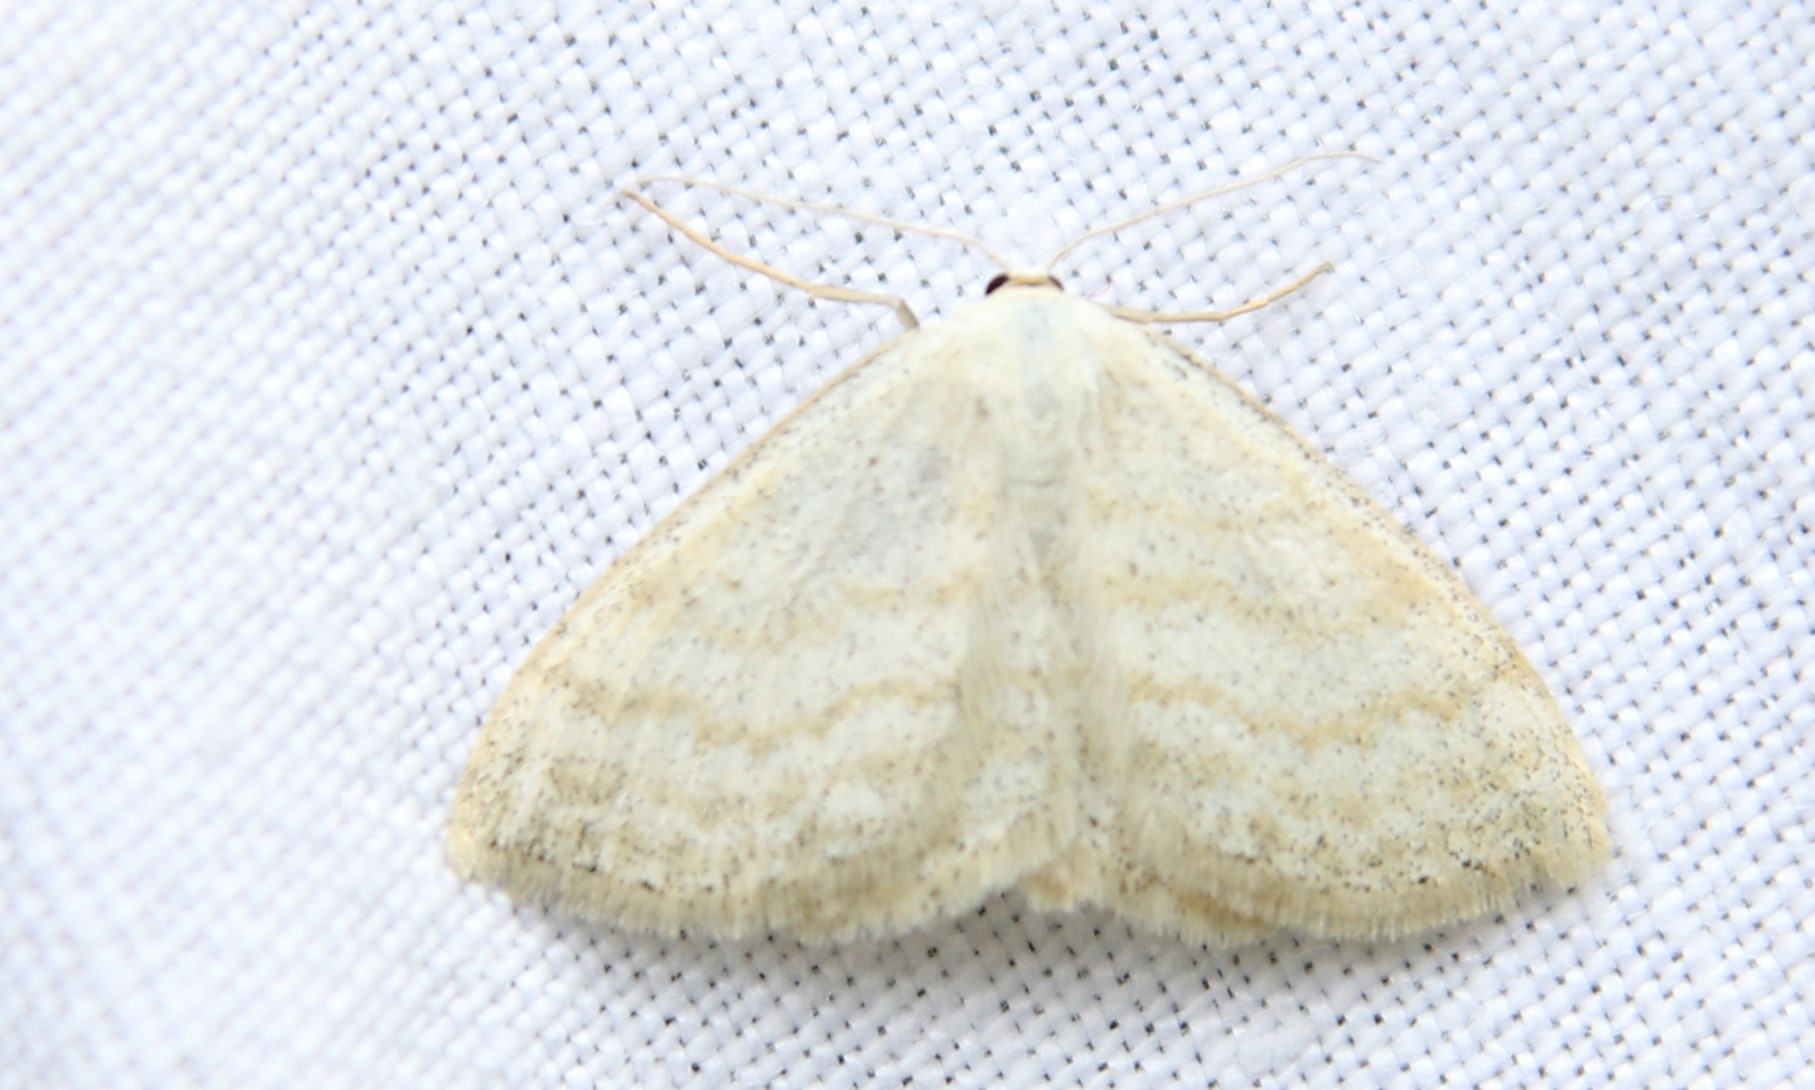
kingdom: Animalia
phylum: Arthropoda
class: Insecta
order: Lepidoptera
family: Geometridae
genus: Scopula
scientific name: Scopula ternata
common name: Smoky wave
